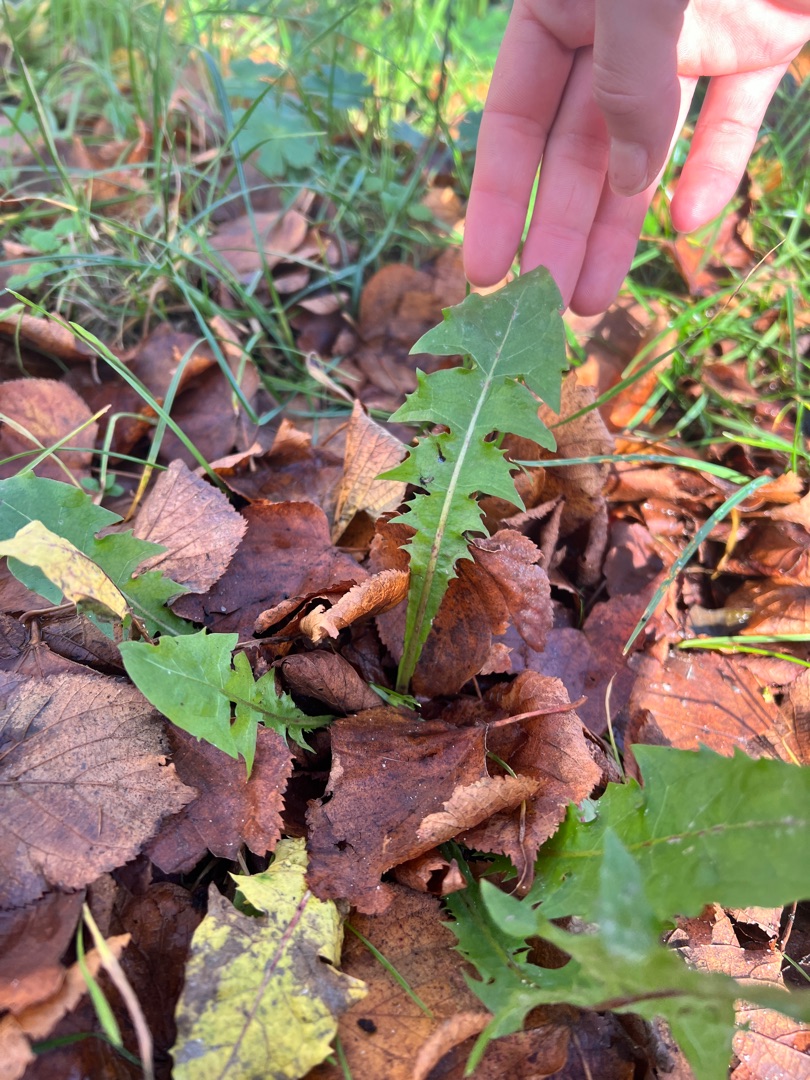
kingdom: Plantae
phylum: Tracheophyta
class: Magnoliopsida
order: Asterales
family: Asteraceae
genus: Taraxacum
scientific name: Taraxacum
